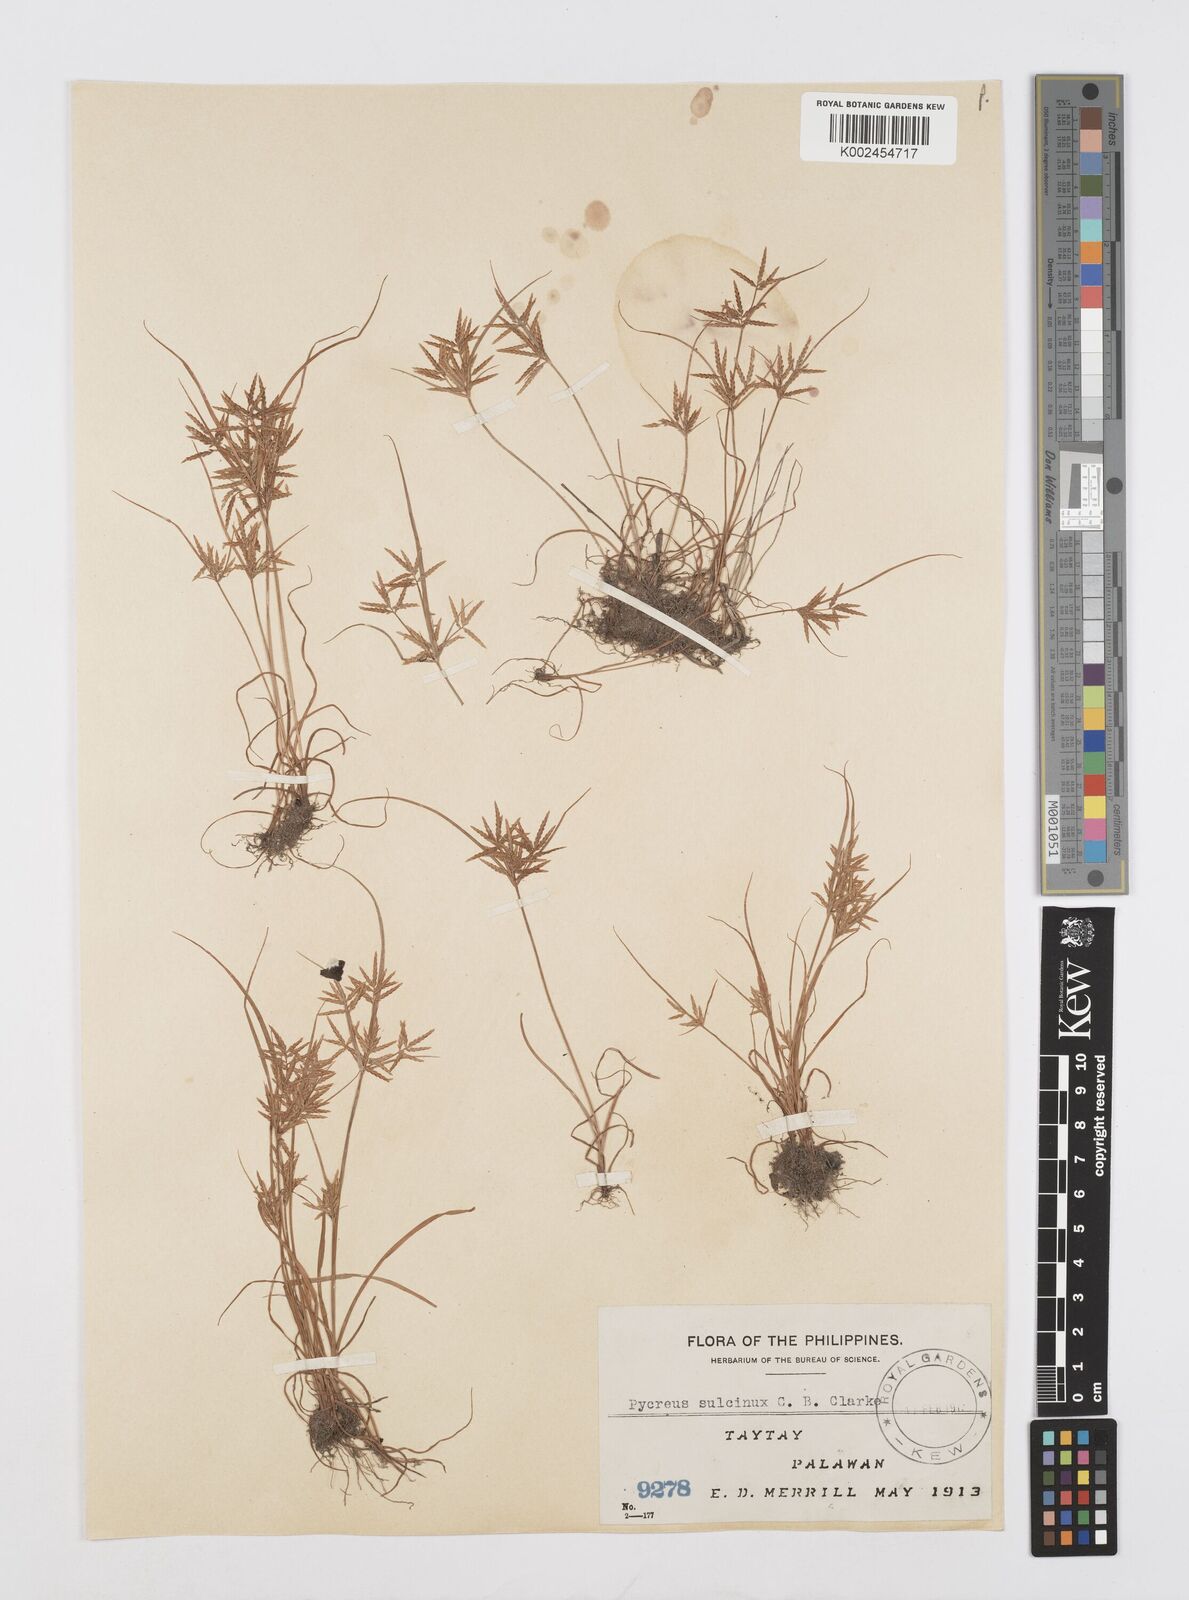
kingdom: Plantae
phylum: Tracheophyta
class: Liliopsida
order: Poales
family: Cyperaceae
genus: Cyperus
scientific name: Cyperus sulcinux
